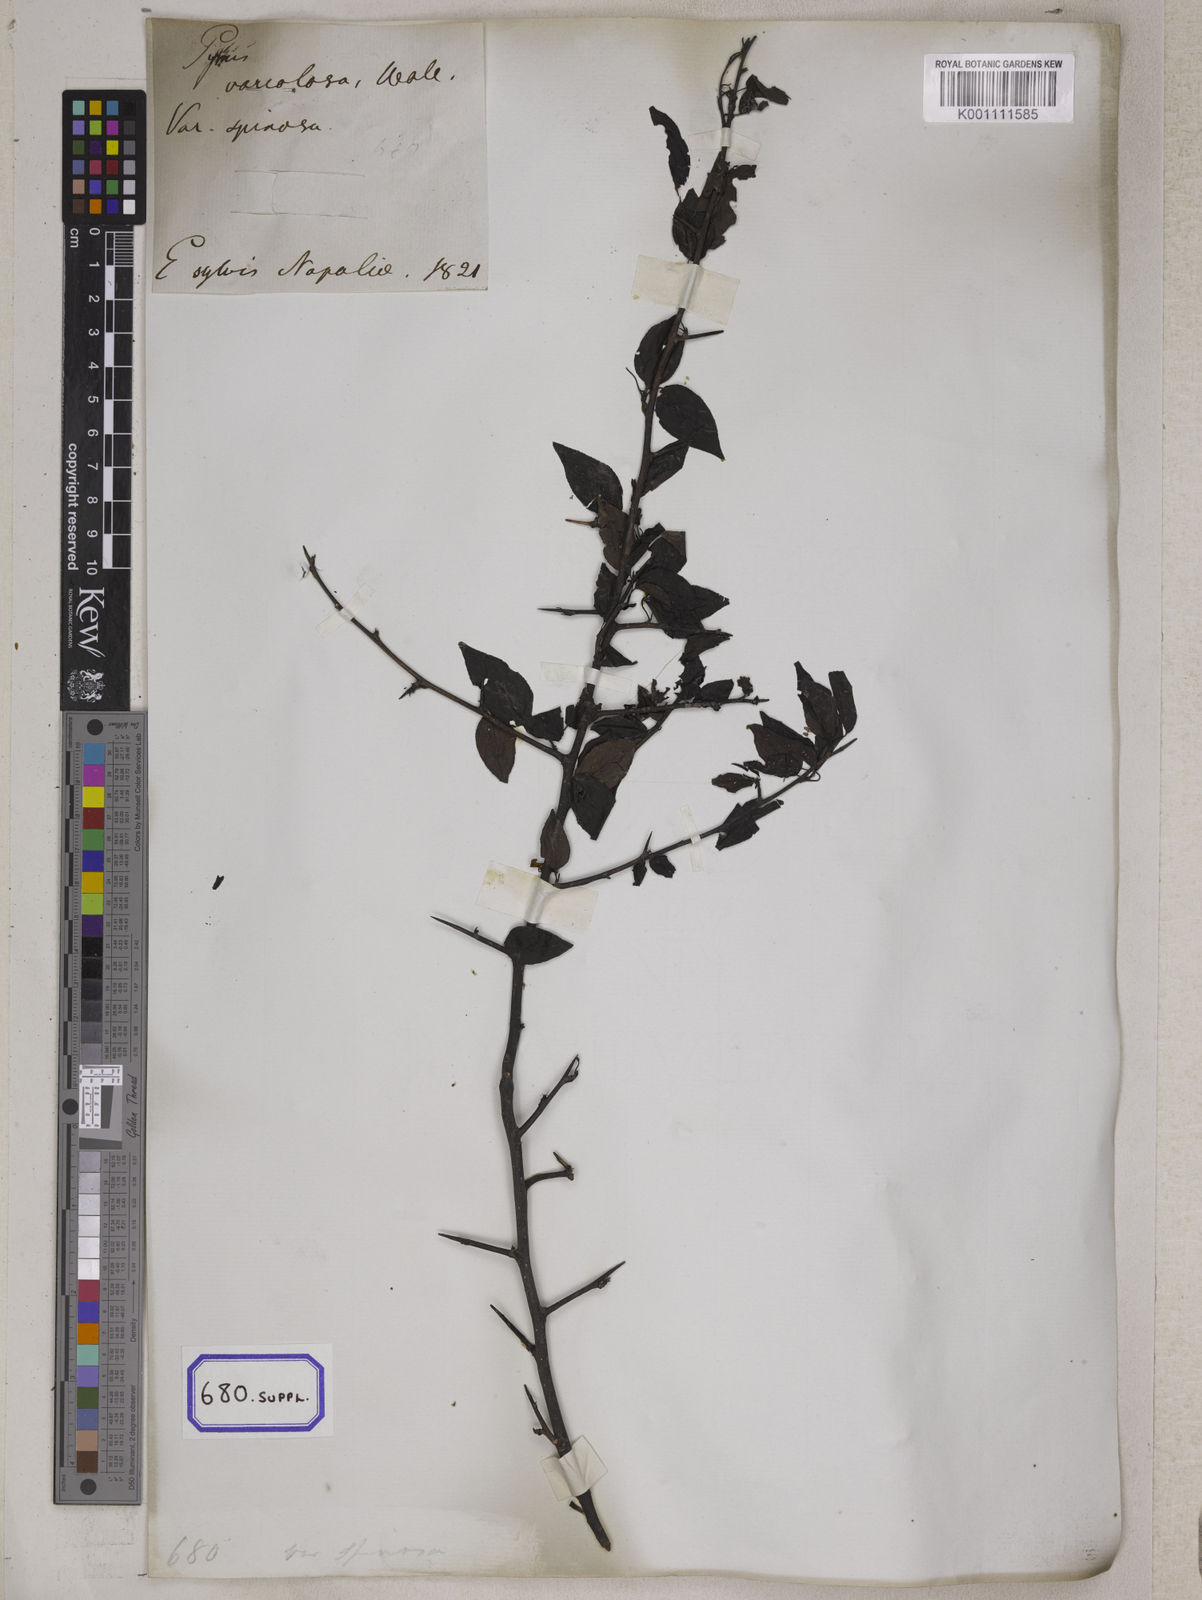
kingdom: Plantae
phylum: Tracheophyta
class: Magnoliopsida
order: Rosales
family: Rosaceae
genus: Pyrus
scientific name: Pyrus
